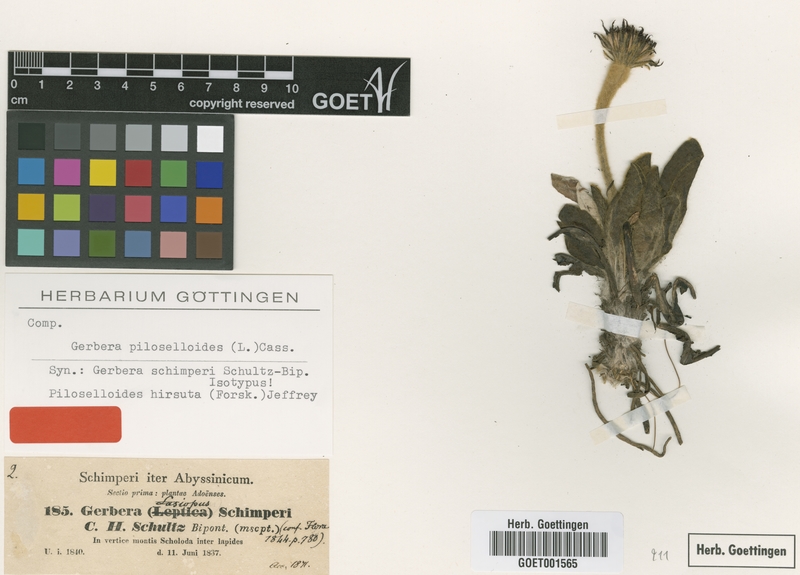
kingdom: Plantae
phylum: Tracheophyta
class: Magnoliopsida
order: Asterales
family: Asteraceae
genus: Piloselloides
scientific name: Piloselloides hirsuta
